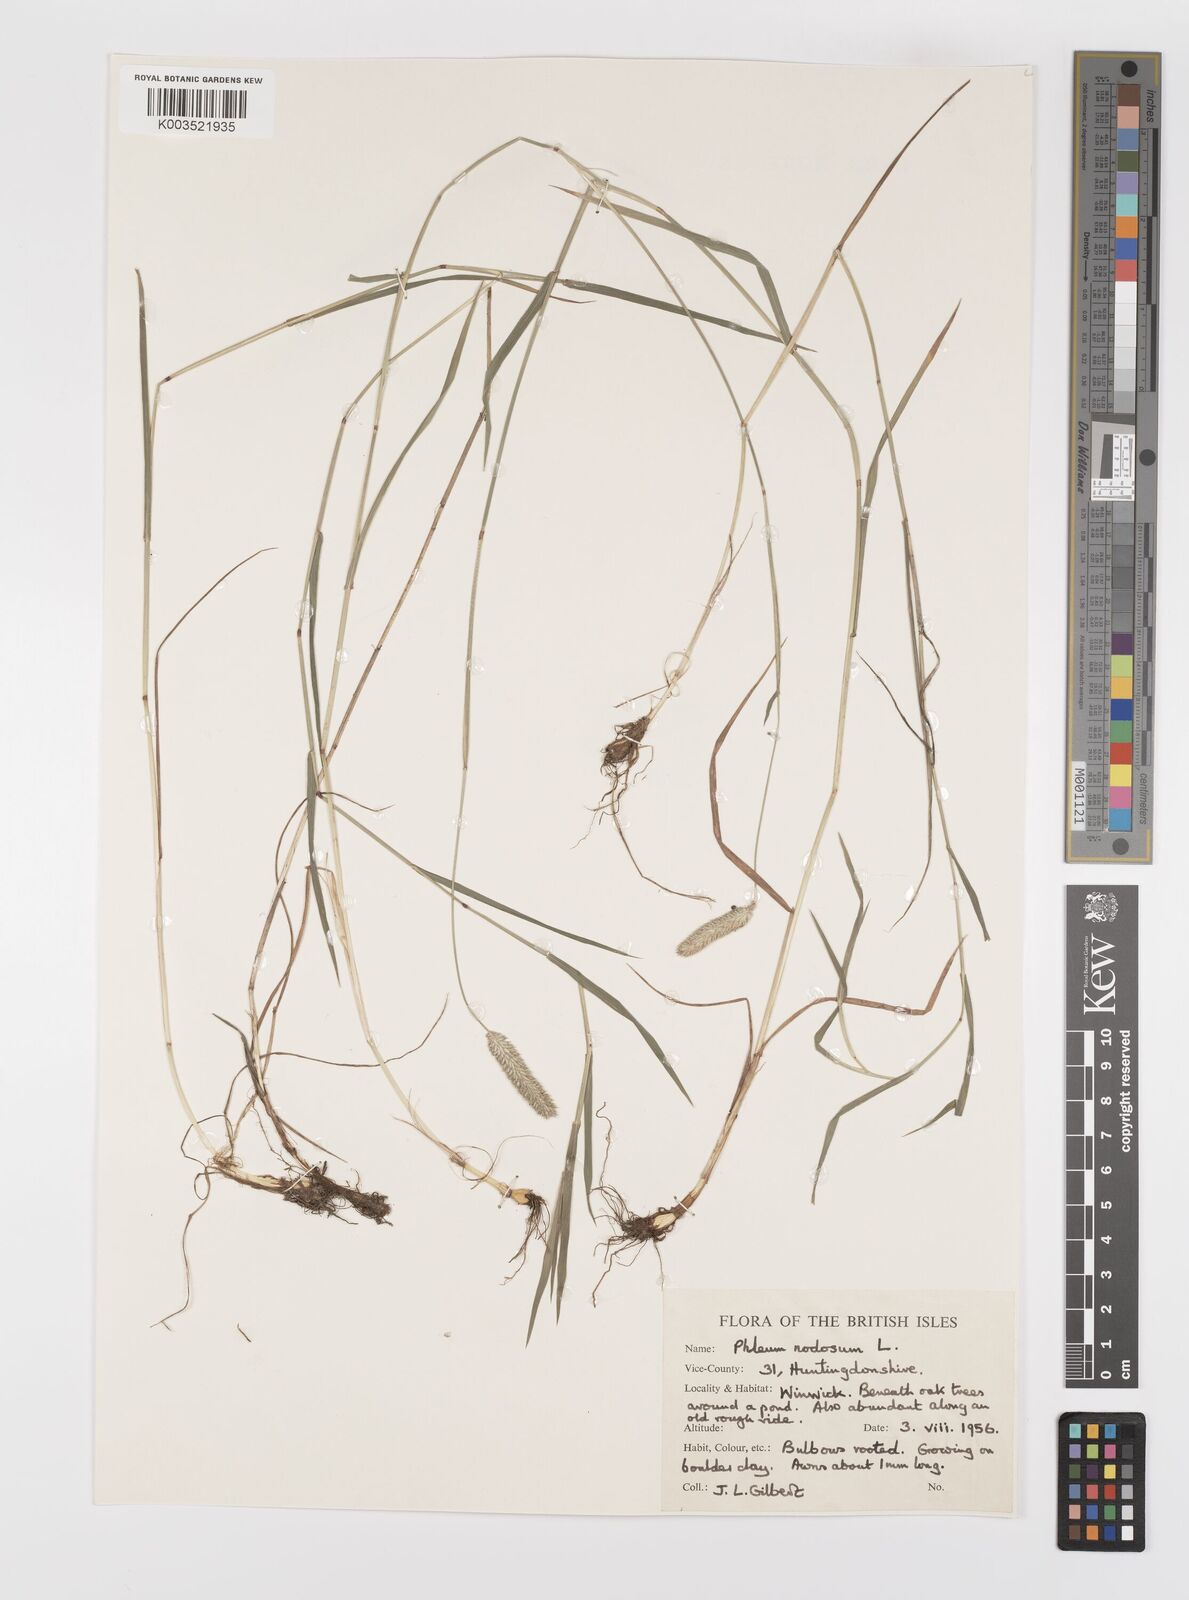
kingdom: Plantae
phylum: Tracheophyta
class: Liliopsida
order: Poales
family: Poaceae
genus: Phleum
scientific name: Phleum bertolonii
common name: Smaller cat's-tail
